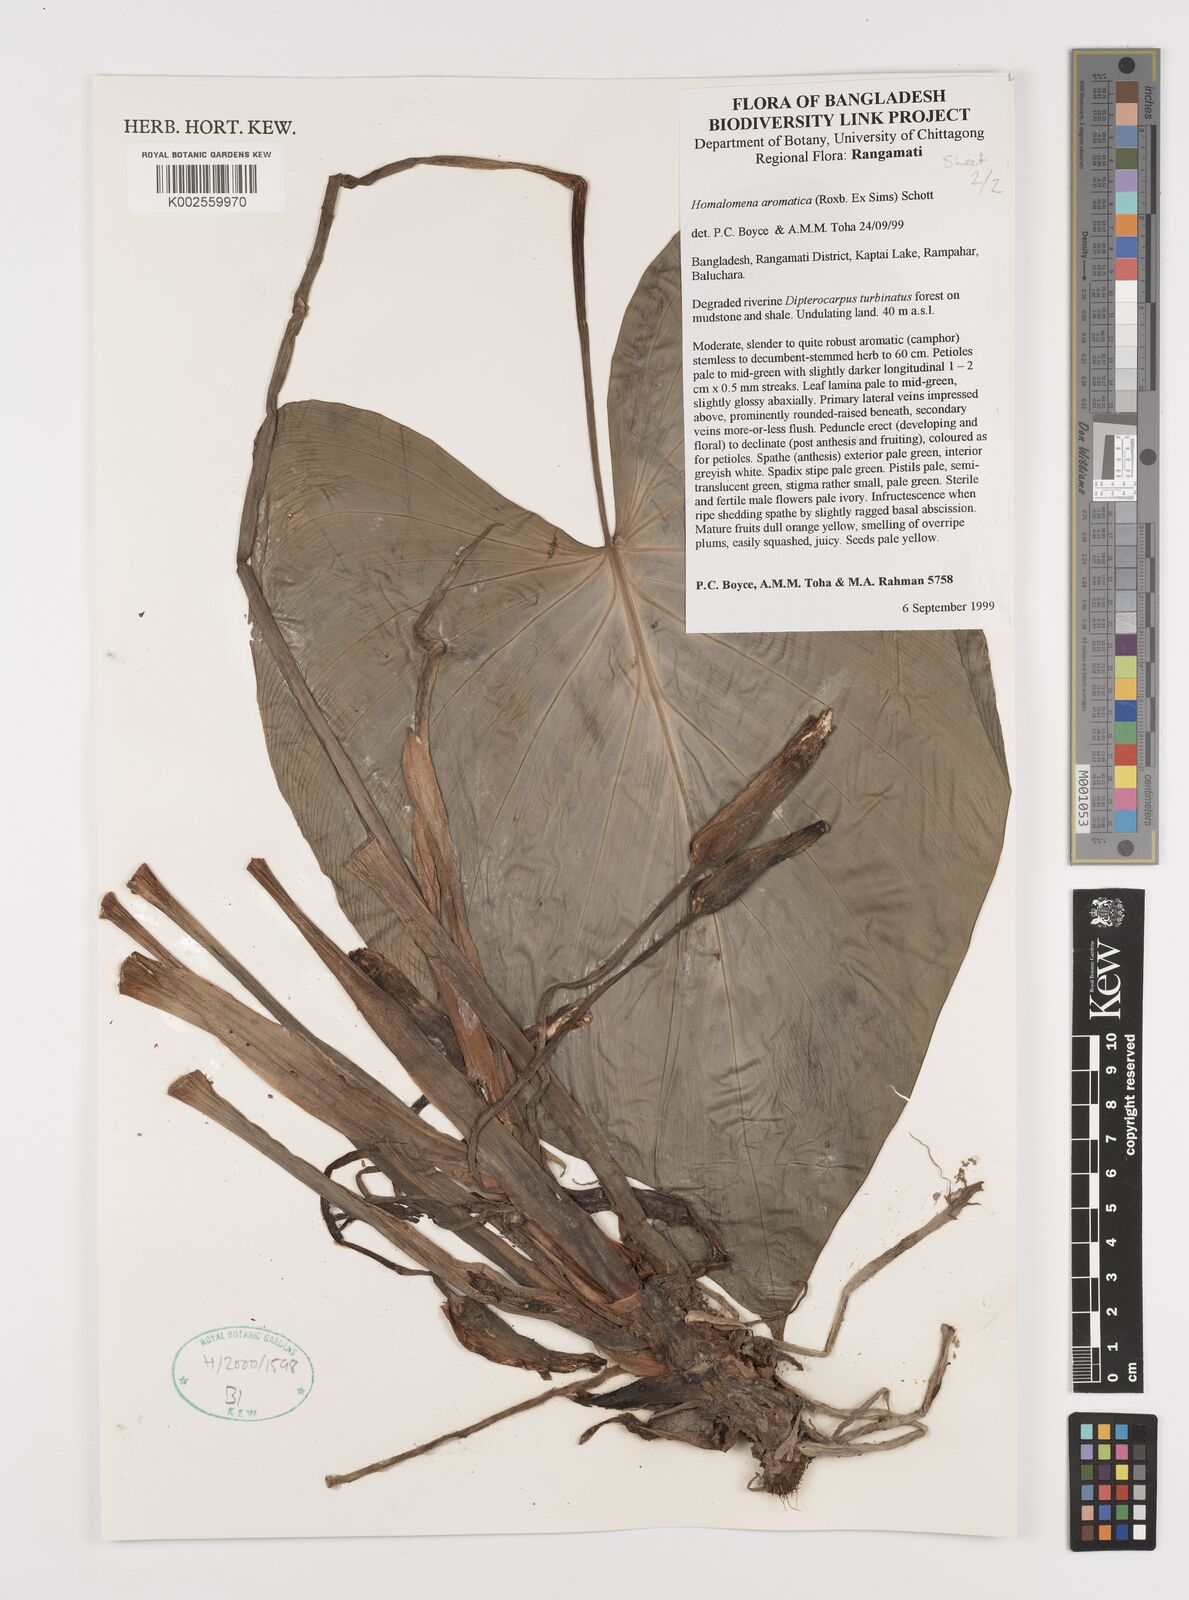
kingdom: Plantae
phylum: Tracheophyta
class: Liliopsida
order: Alismatales
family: Araceae
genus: Homalomena
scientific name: Homalomena aromatica
